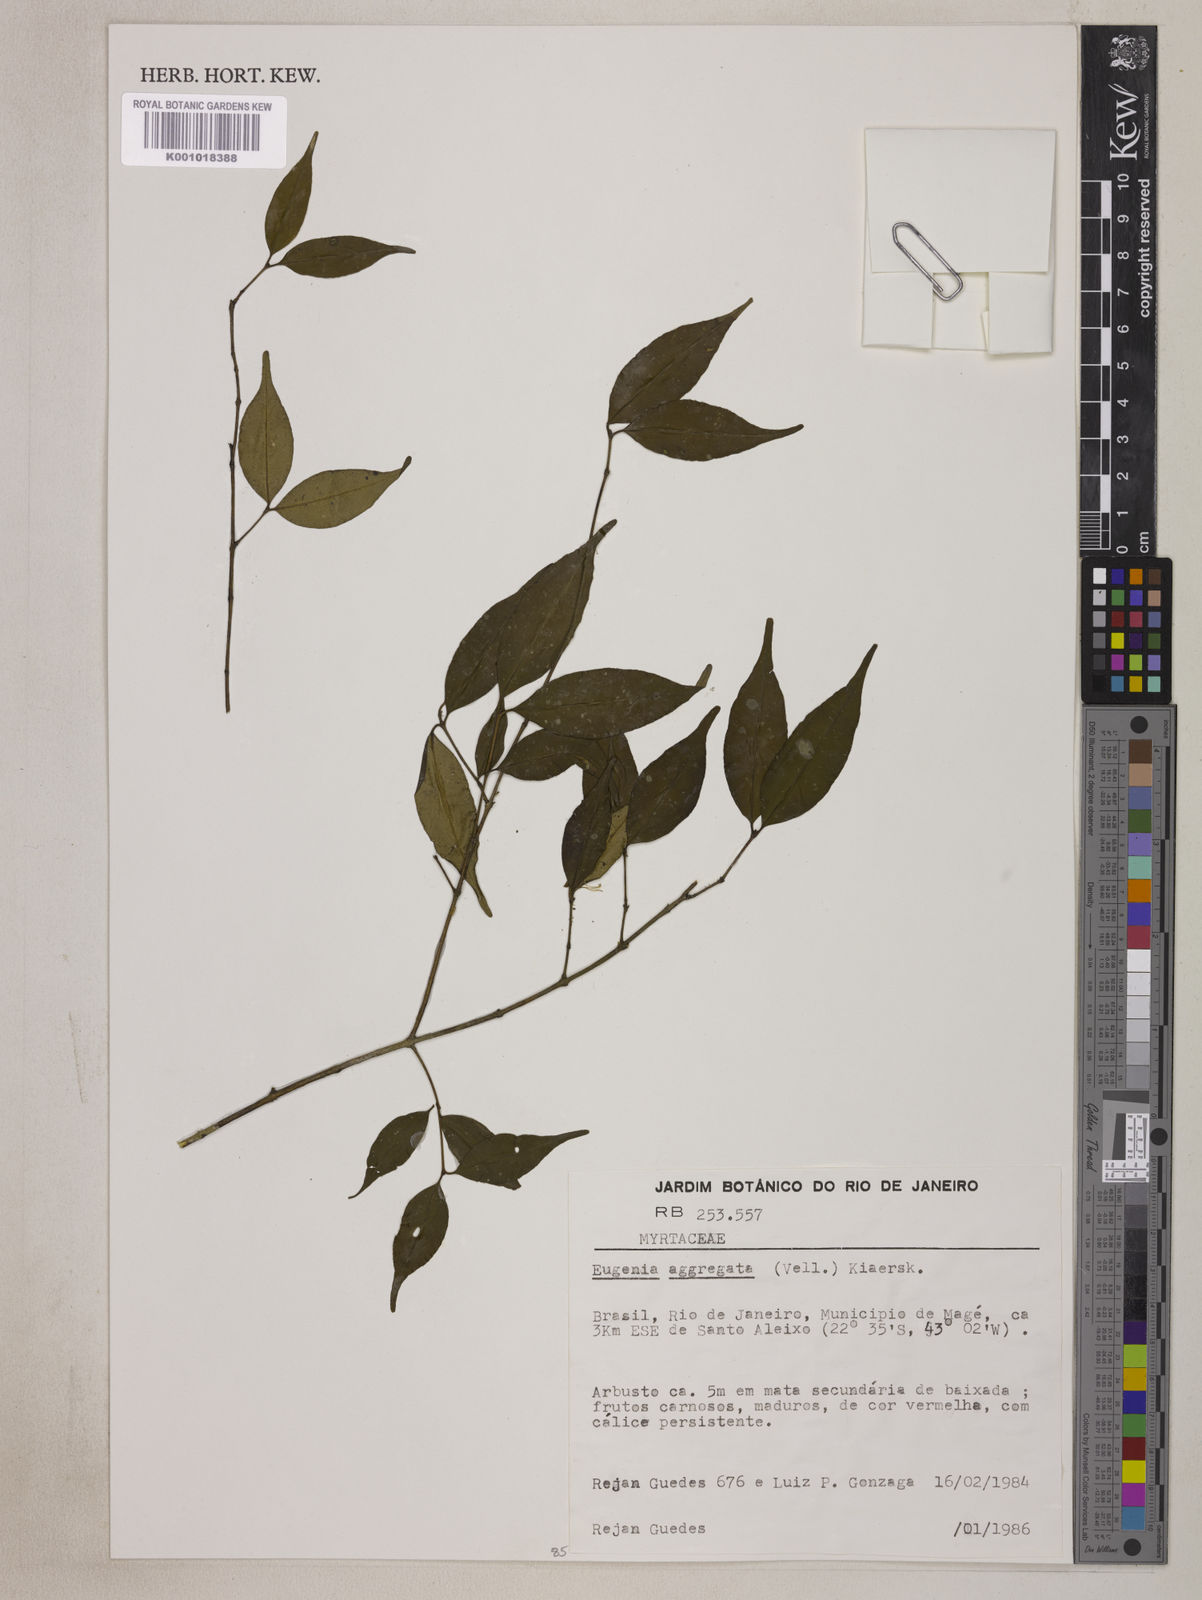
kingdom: Plantae
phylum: Tracheophyta
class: Magnoliopsida
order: Myrtales
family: Myrtaceae
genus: Eugenia
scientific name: Eugenia involucrata
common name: Cherry-of-the-rio grande
